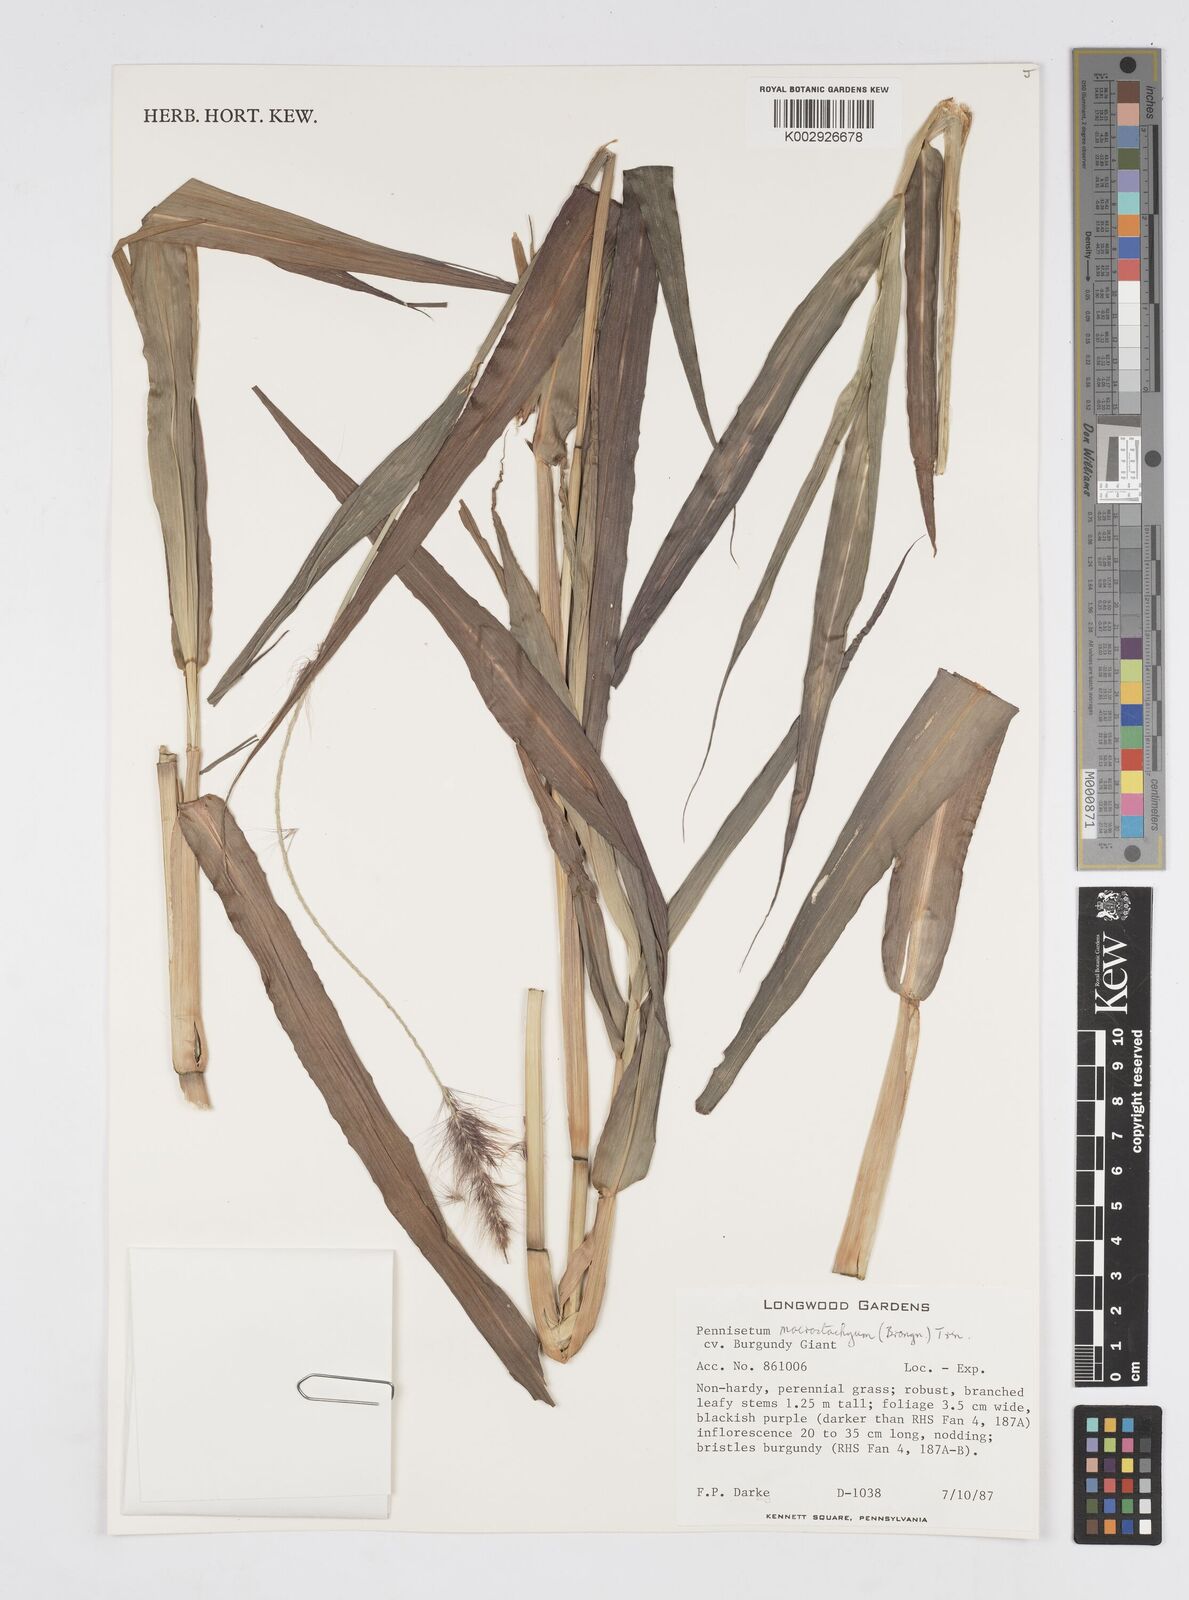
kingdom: Plantae
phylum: Tracheophyta
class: Liliopsida
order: Poales
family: Poaceae
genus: Cenchrus
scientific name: Cenchrus purpureus
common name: Elephant grass
